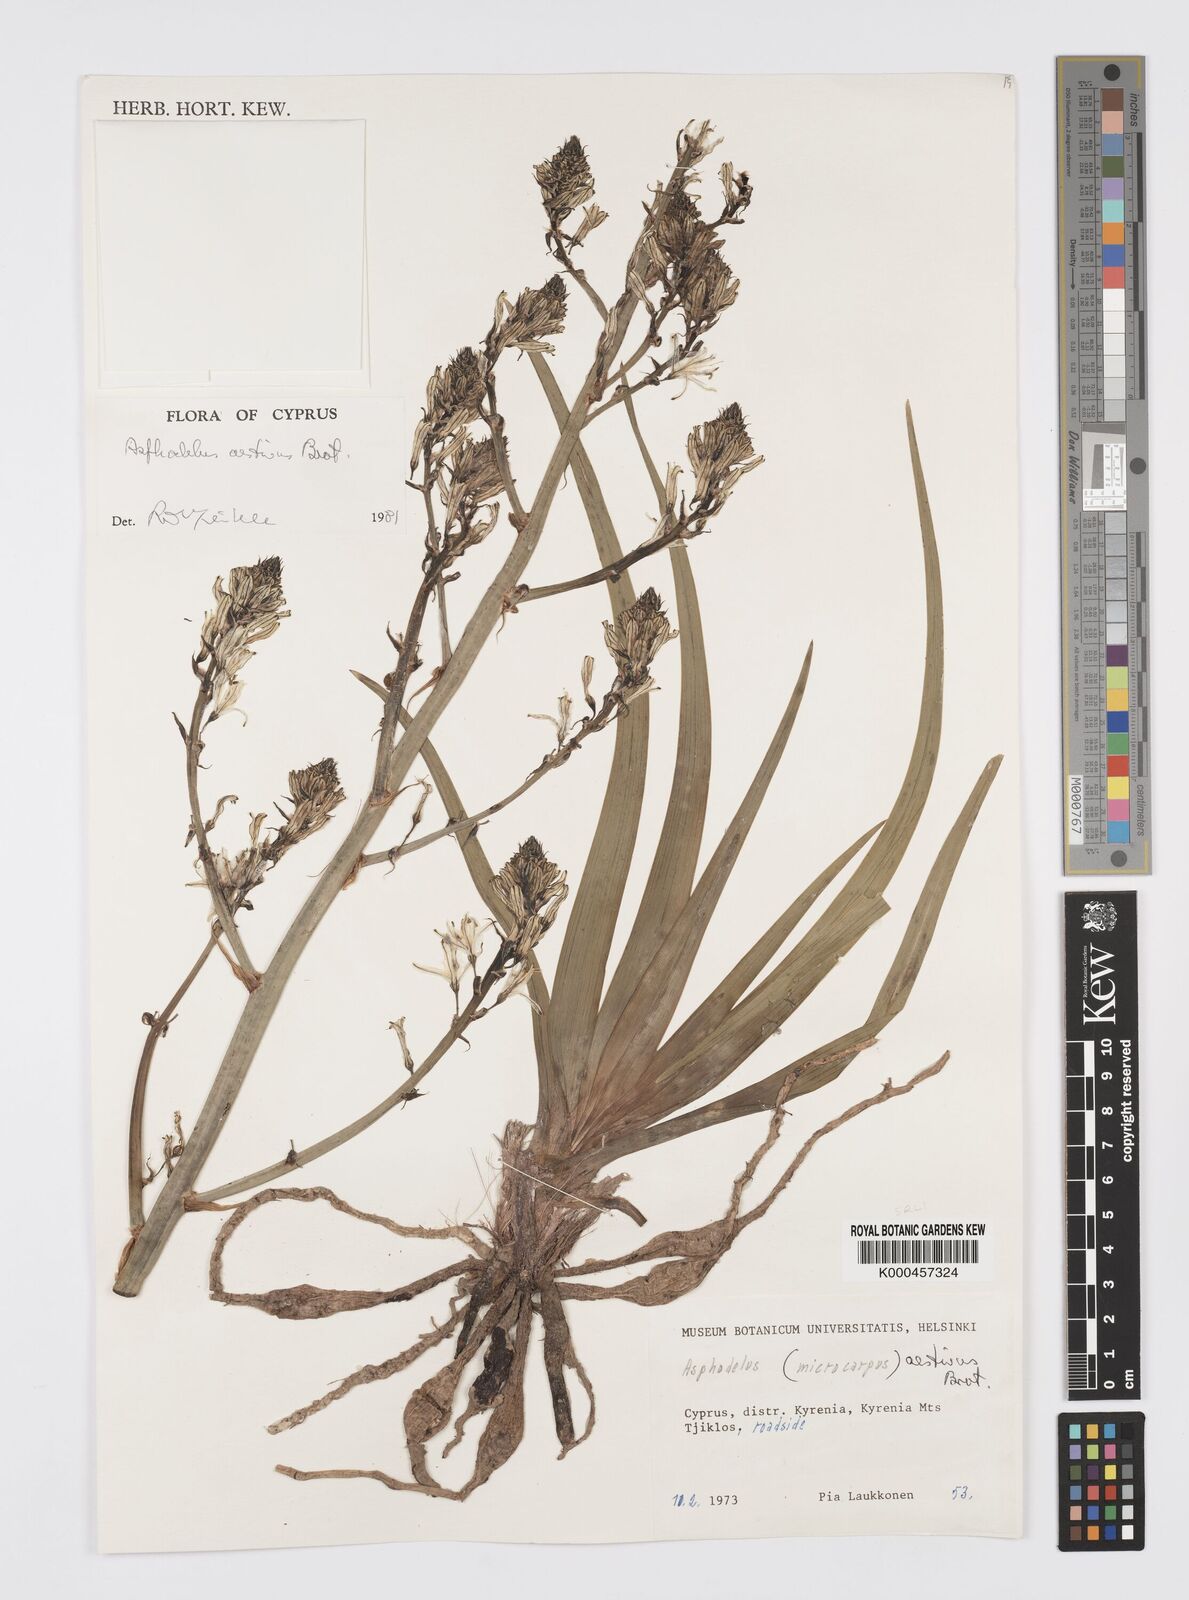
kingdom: Plantae
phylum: Tracheophyta
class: Liliopsida
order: Asparagales
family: Asphodelaceae
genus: Asphodelus
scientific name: Asphodelus aestivus
